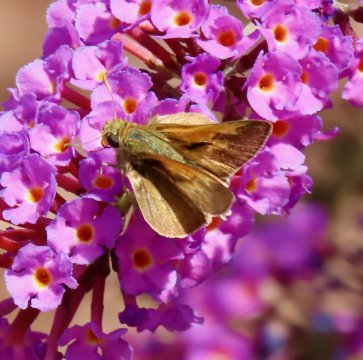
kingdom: Animalia
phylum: Arthropoda
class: Insecta
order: Lepidoptera
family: Hesperiidae
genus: Polites
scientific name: Polites themistocles
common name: Tawny-edged Skipper
